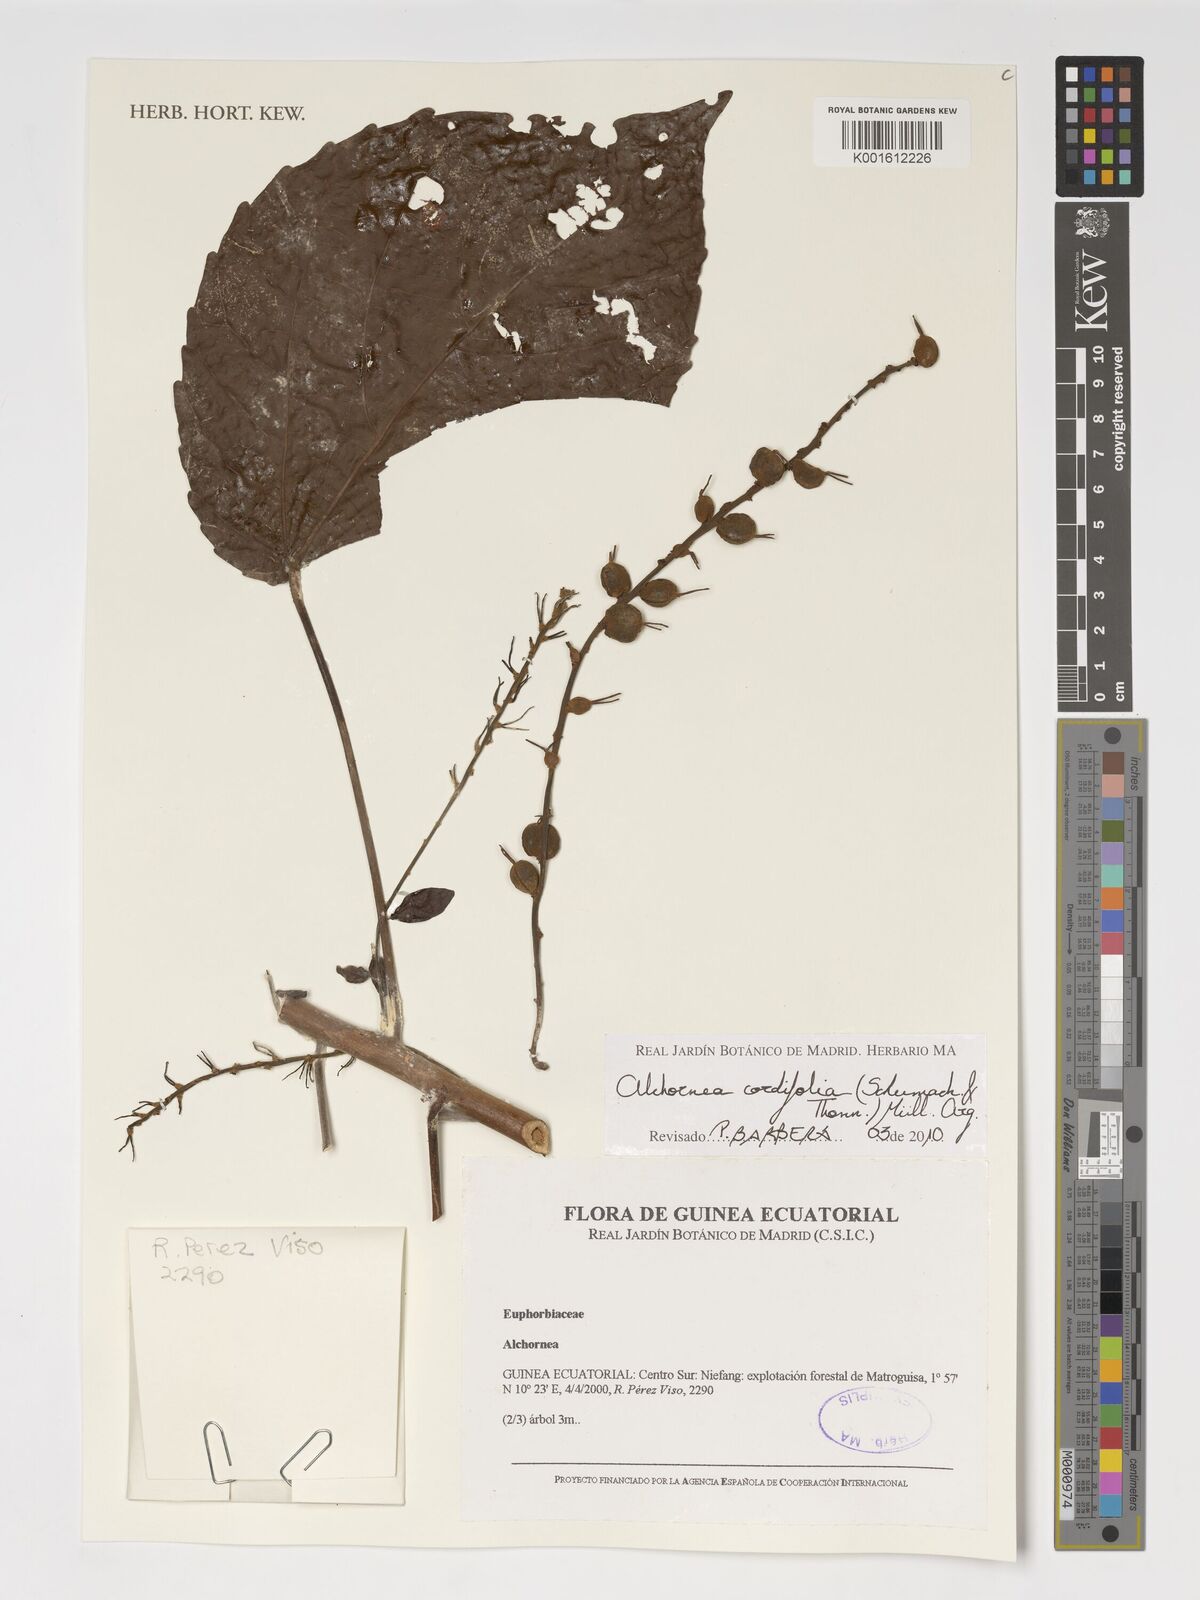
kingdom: Plantae
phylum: Tracheophyta
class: Magnoliopsida
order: Malpighiales
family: Euphorbiaceae
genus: Alchornea
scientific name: Alchornea
